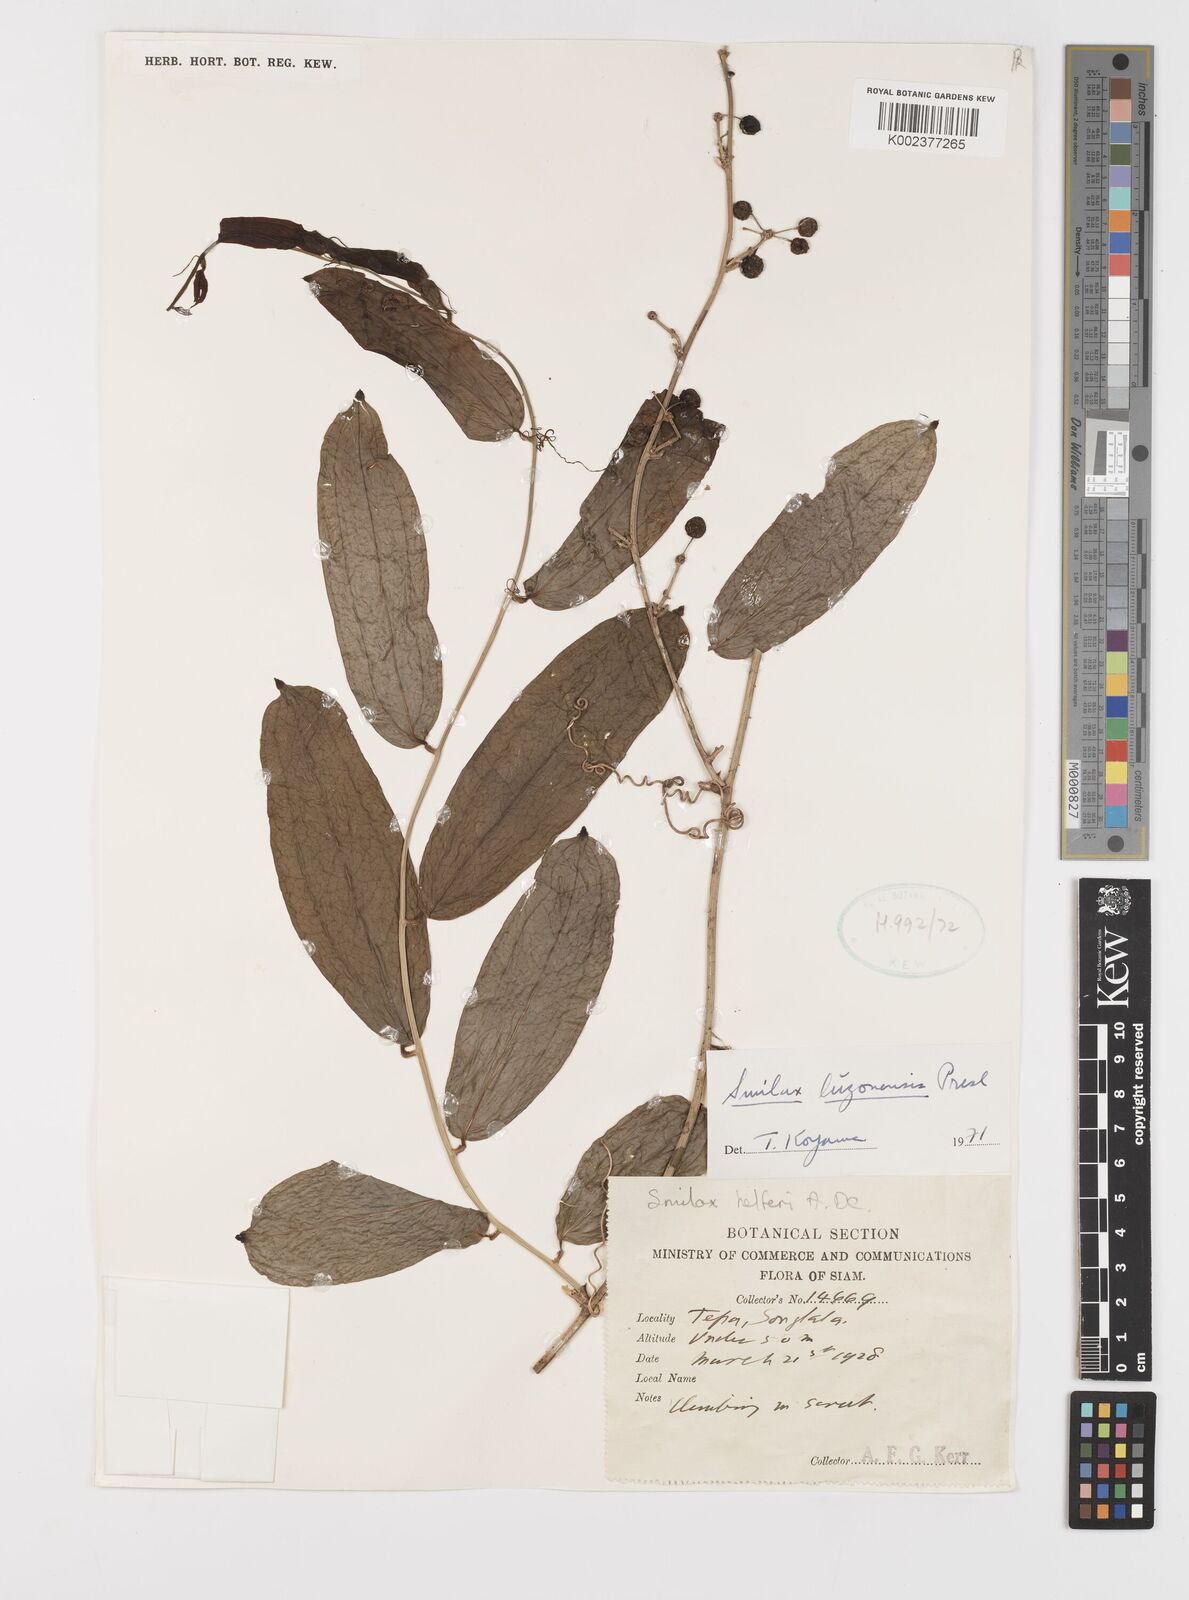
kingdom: Plantae
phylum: Tracheophyta
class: Liliopsida
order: Liliales
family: Smilacaceae
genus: Smilax
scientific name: Smilax luzonensis
